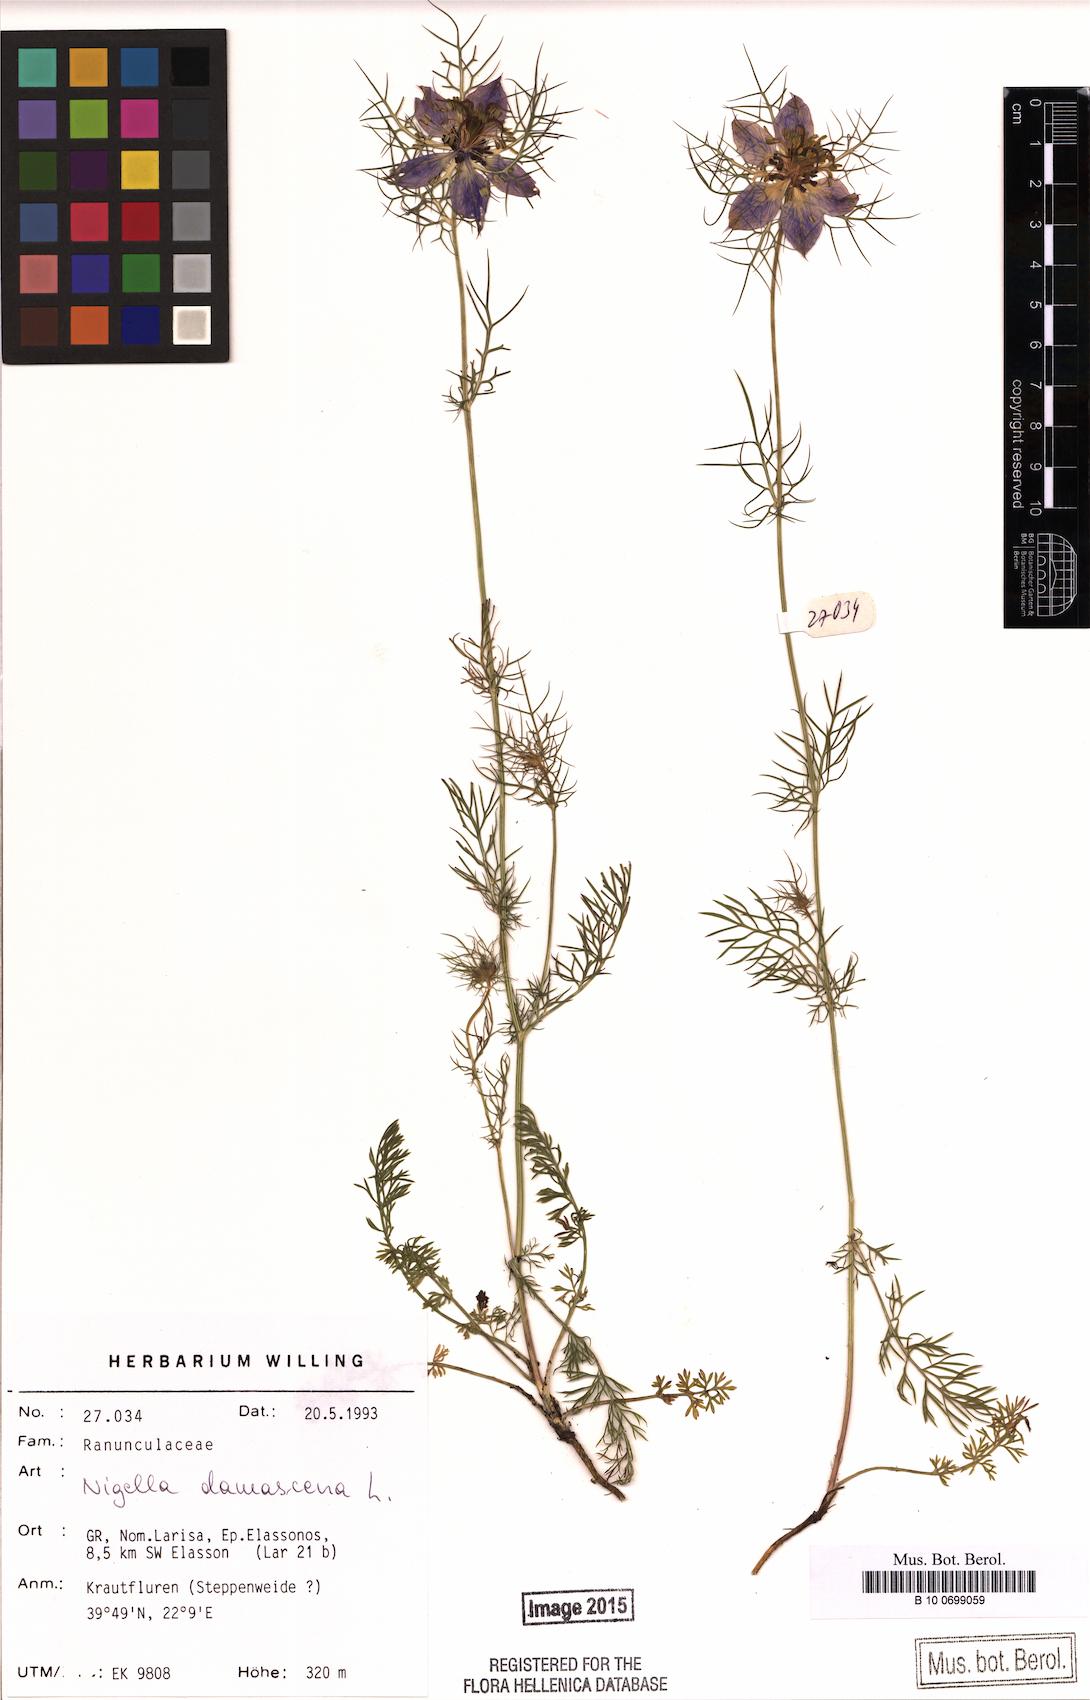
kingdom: Plantae
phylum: Tracheophyta
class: Magnoliopsida
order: Ranunculales
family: Ranunculaceae
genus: Nigella
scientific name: Nigella damascena
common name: Love-in-a-mist
